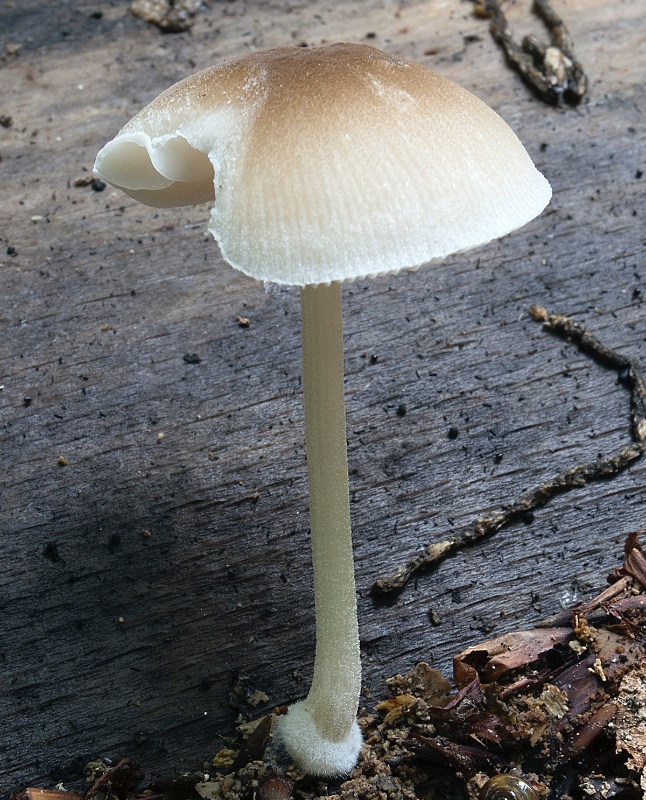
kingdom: Fungi
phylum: Basidiomycota
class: Agaricomycetes
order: Agaricales
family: Pluteaceae
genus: Pluteus
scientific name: Pluteus semibulbosus
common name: knoldet skærmhat
